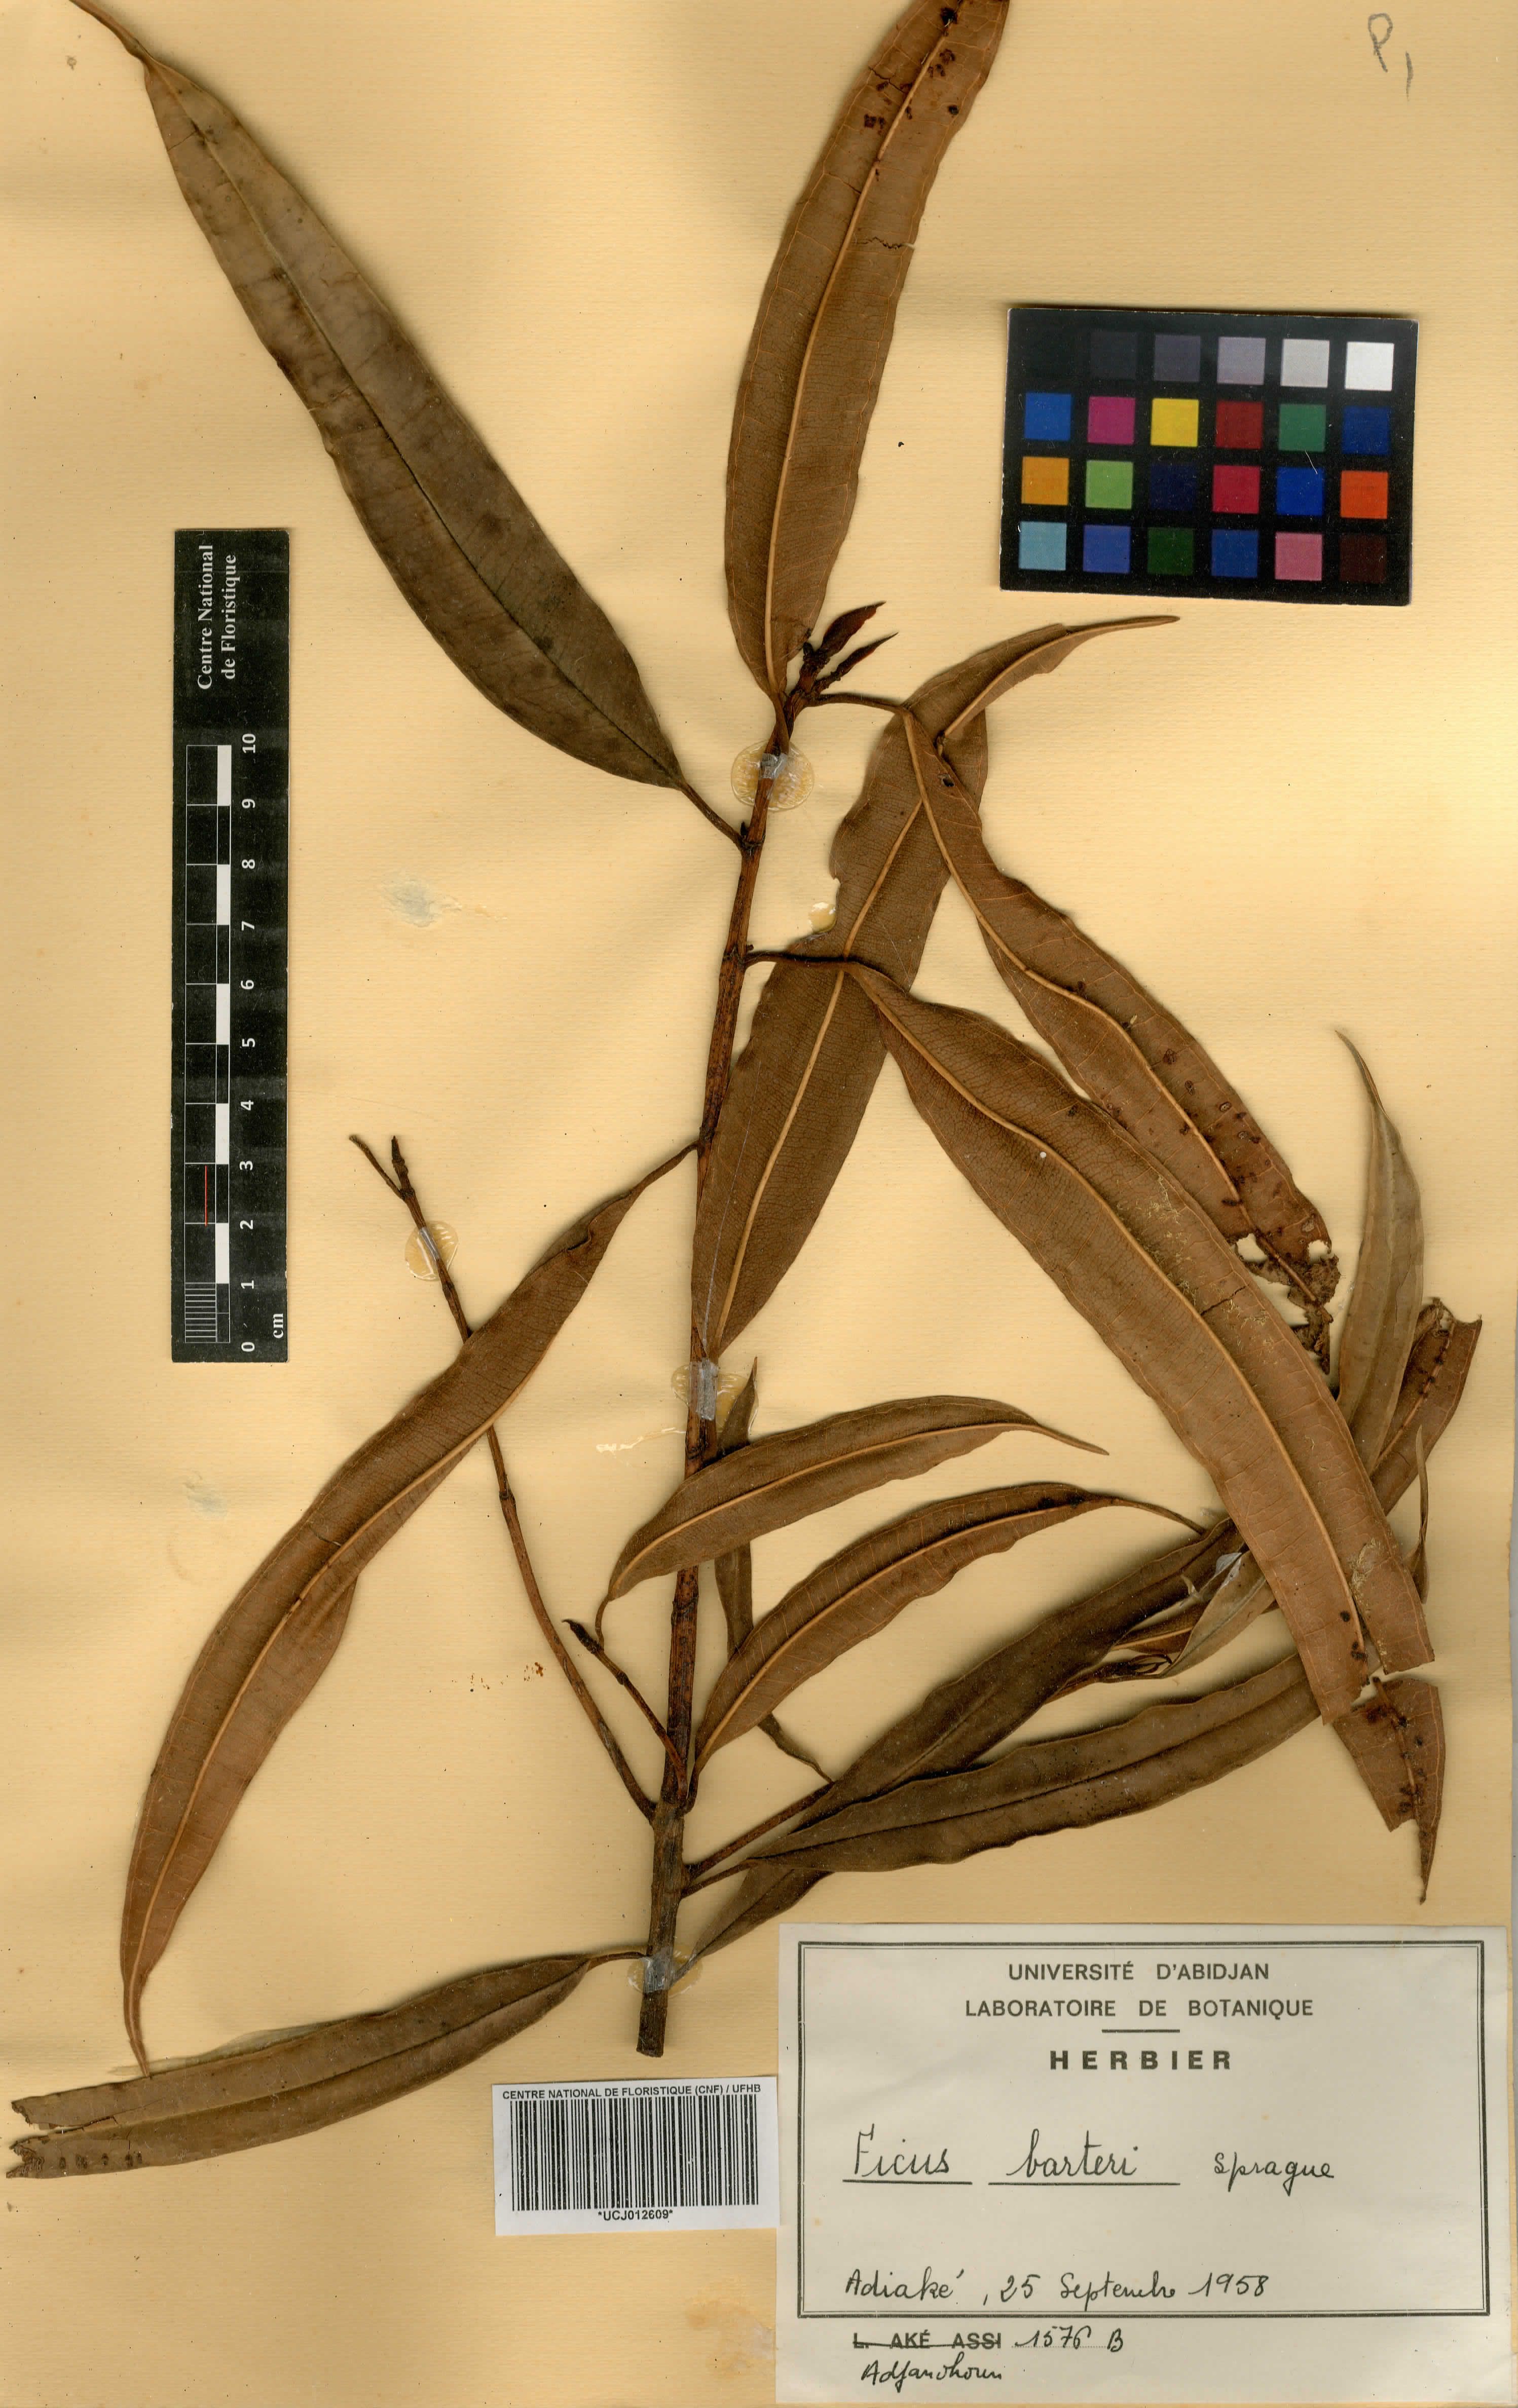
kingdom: Plantae
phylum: Tracheophyta
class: Magnoliopsida
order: Rosales
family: Moraceae
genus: Ficus
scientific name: Ficus barteri
